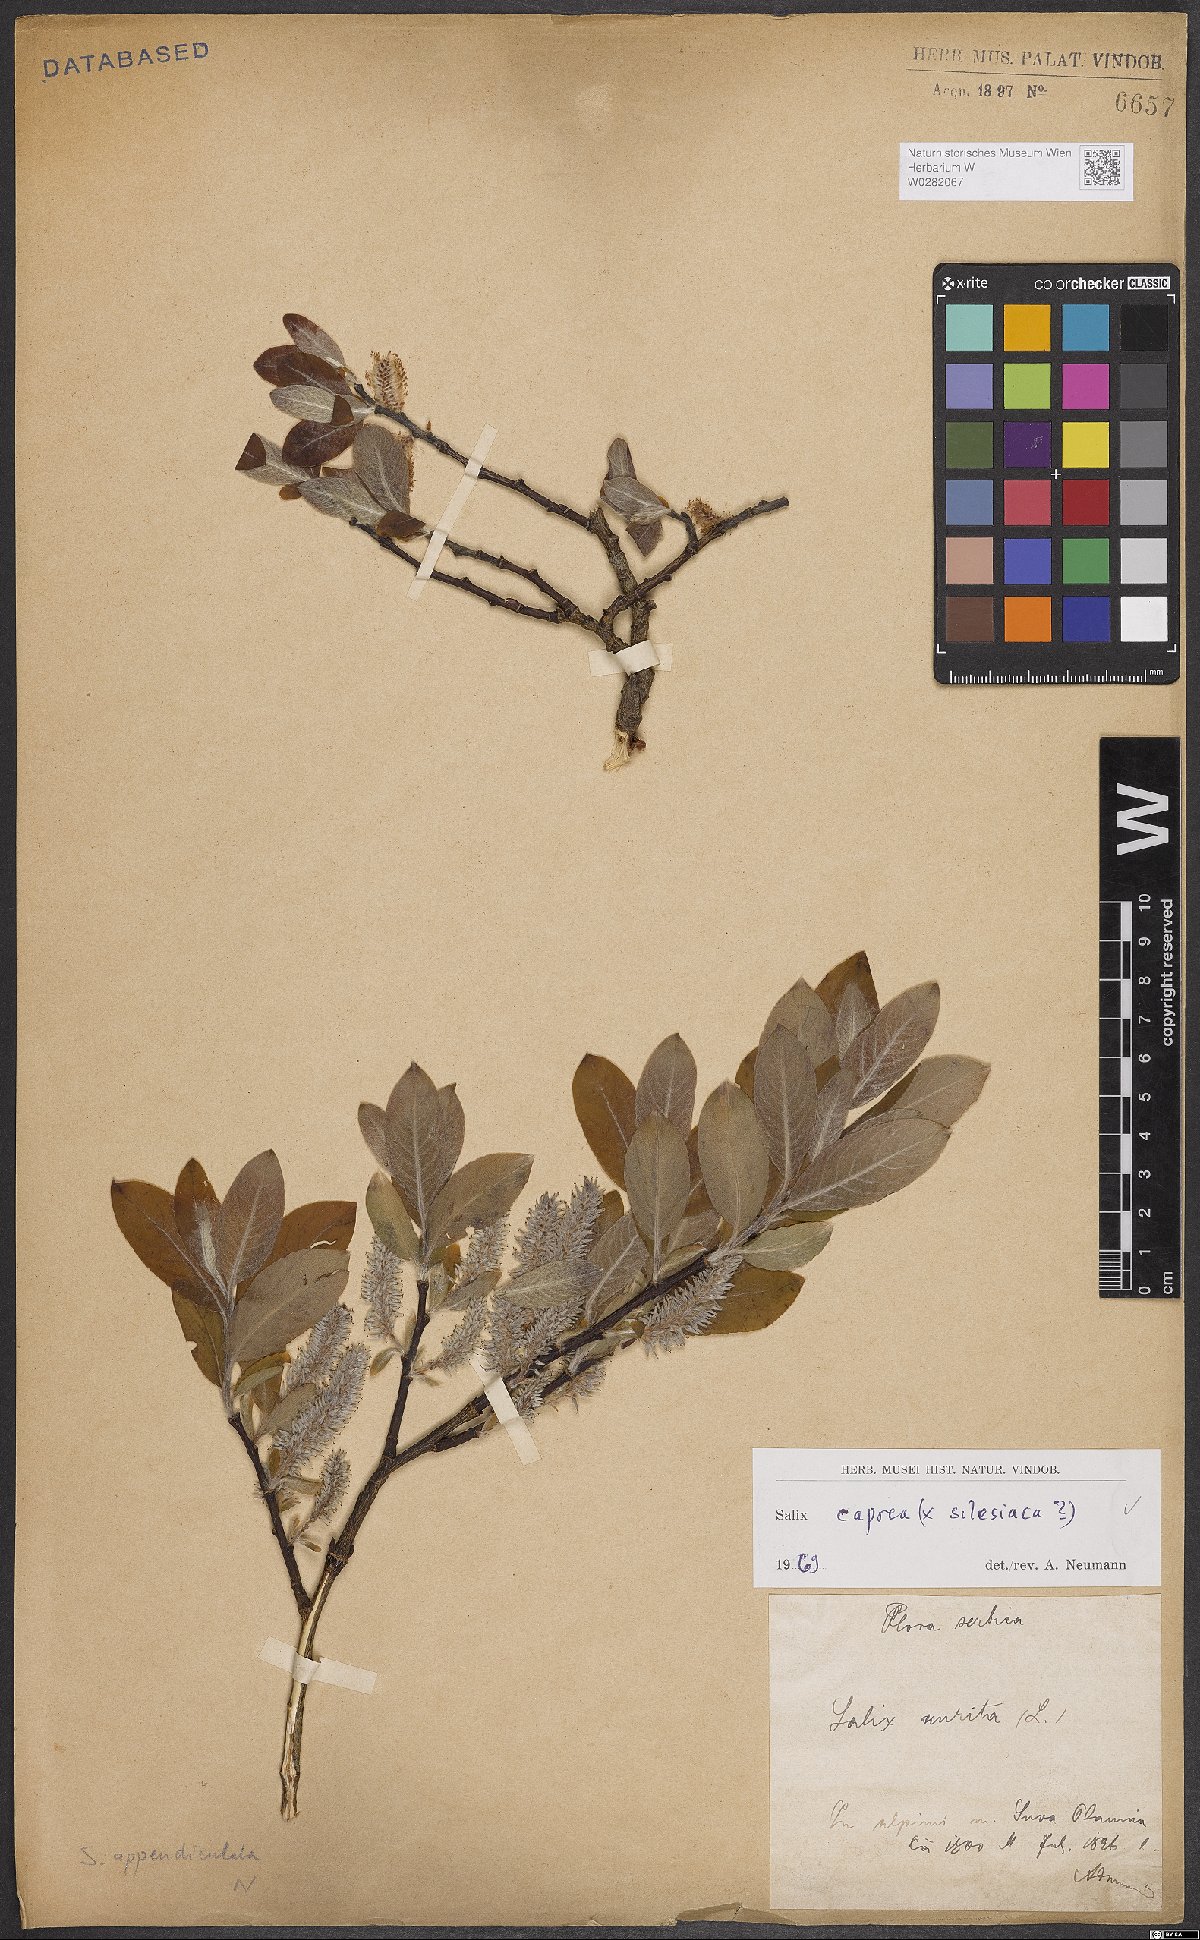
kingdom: Plantae
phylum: Tracheophyta
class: Magnoliopsida
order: Malpighiales
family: Salicaceae
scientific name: Salicaceae
